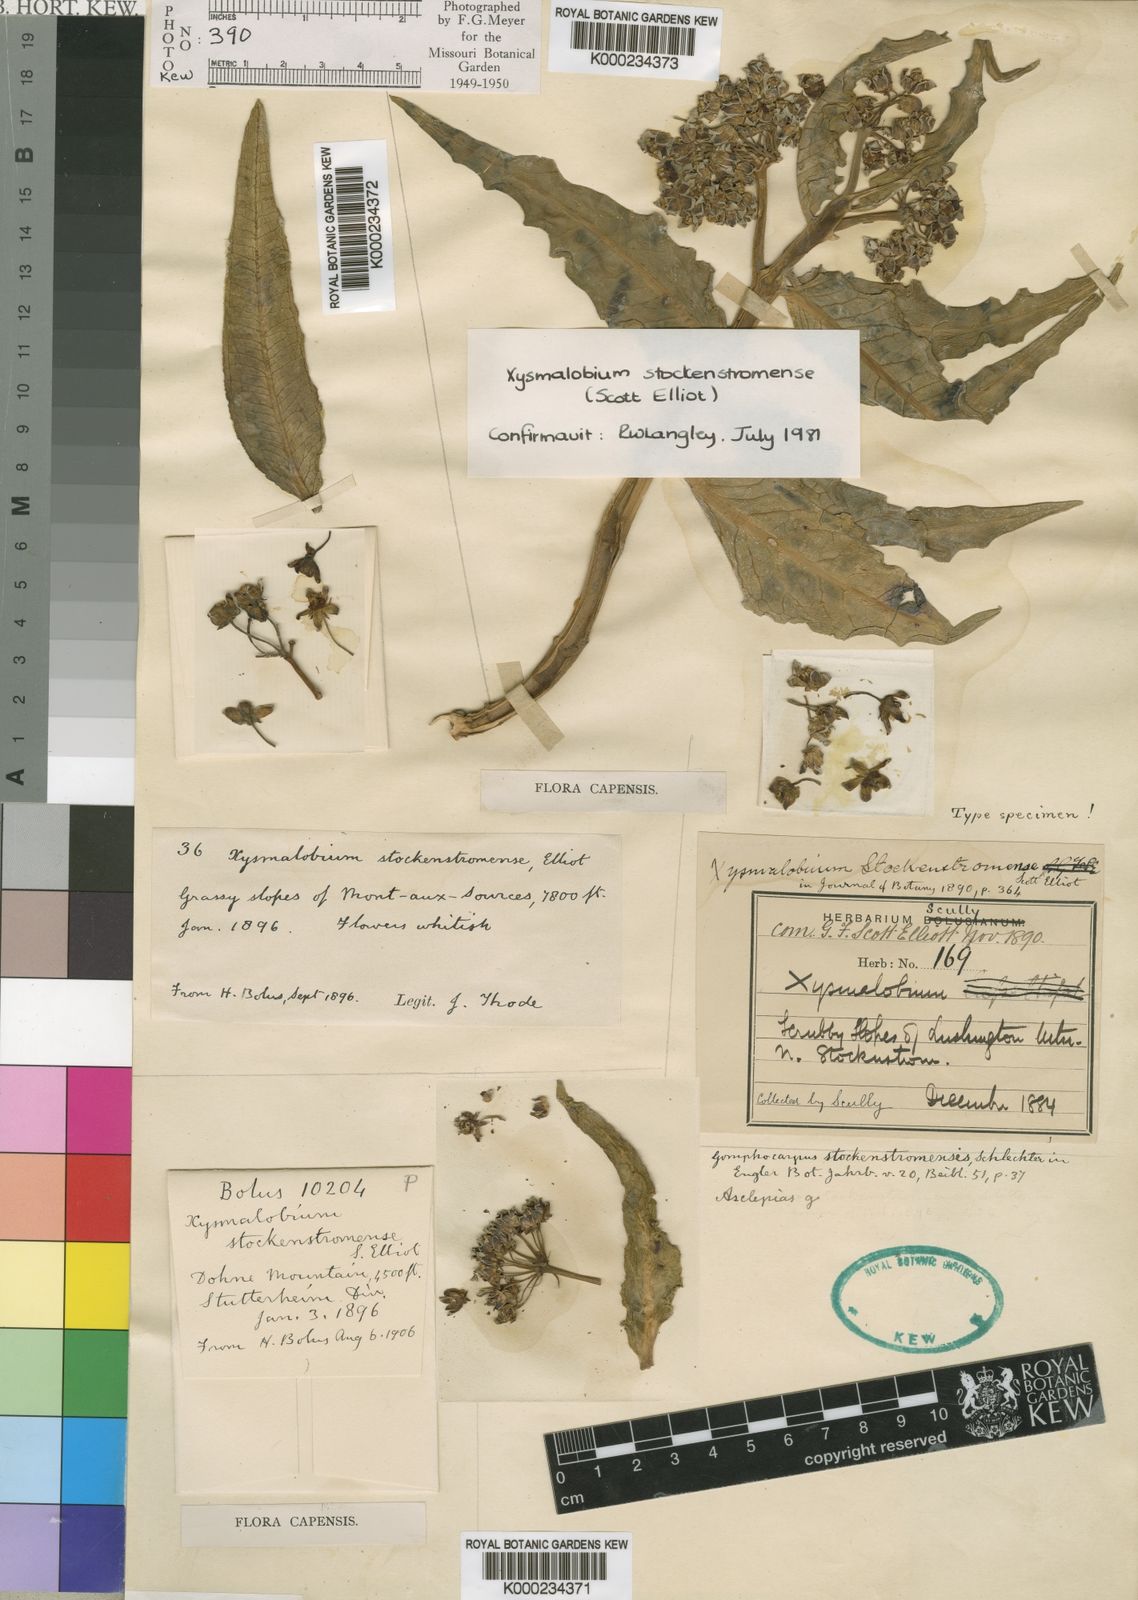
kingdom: Plantae
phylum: Tracheophyta
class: Magnoliopsida
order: Gentianales
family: Apocynaceae
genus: Xysmalobium
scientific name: Xysmalobium stockenstromense
